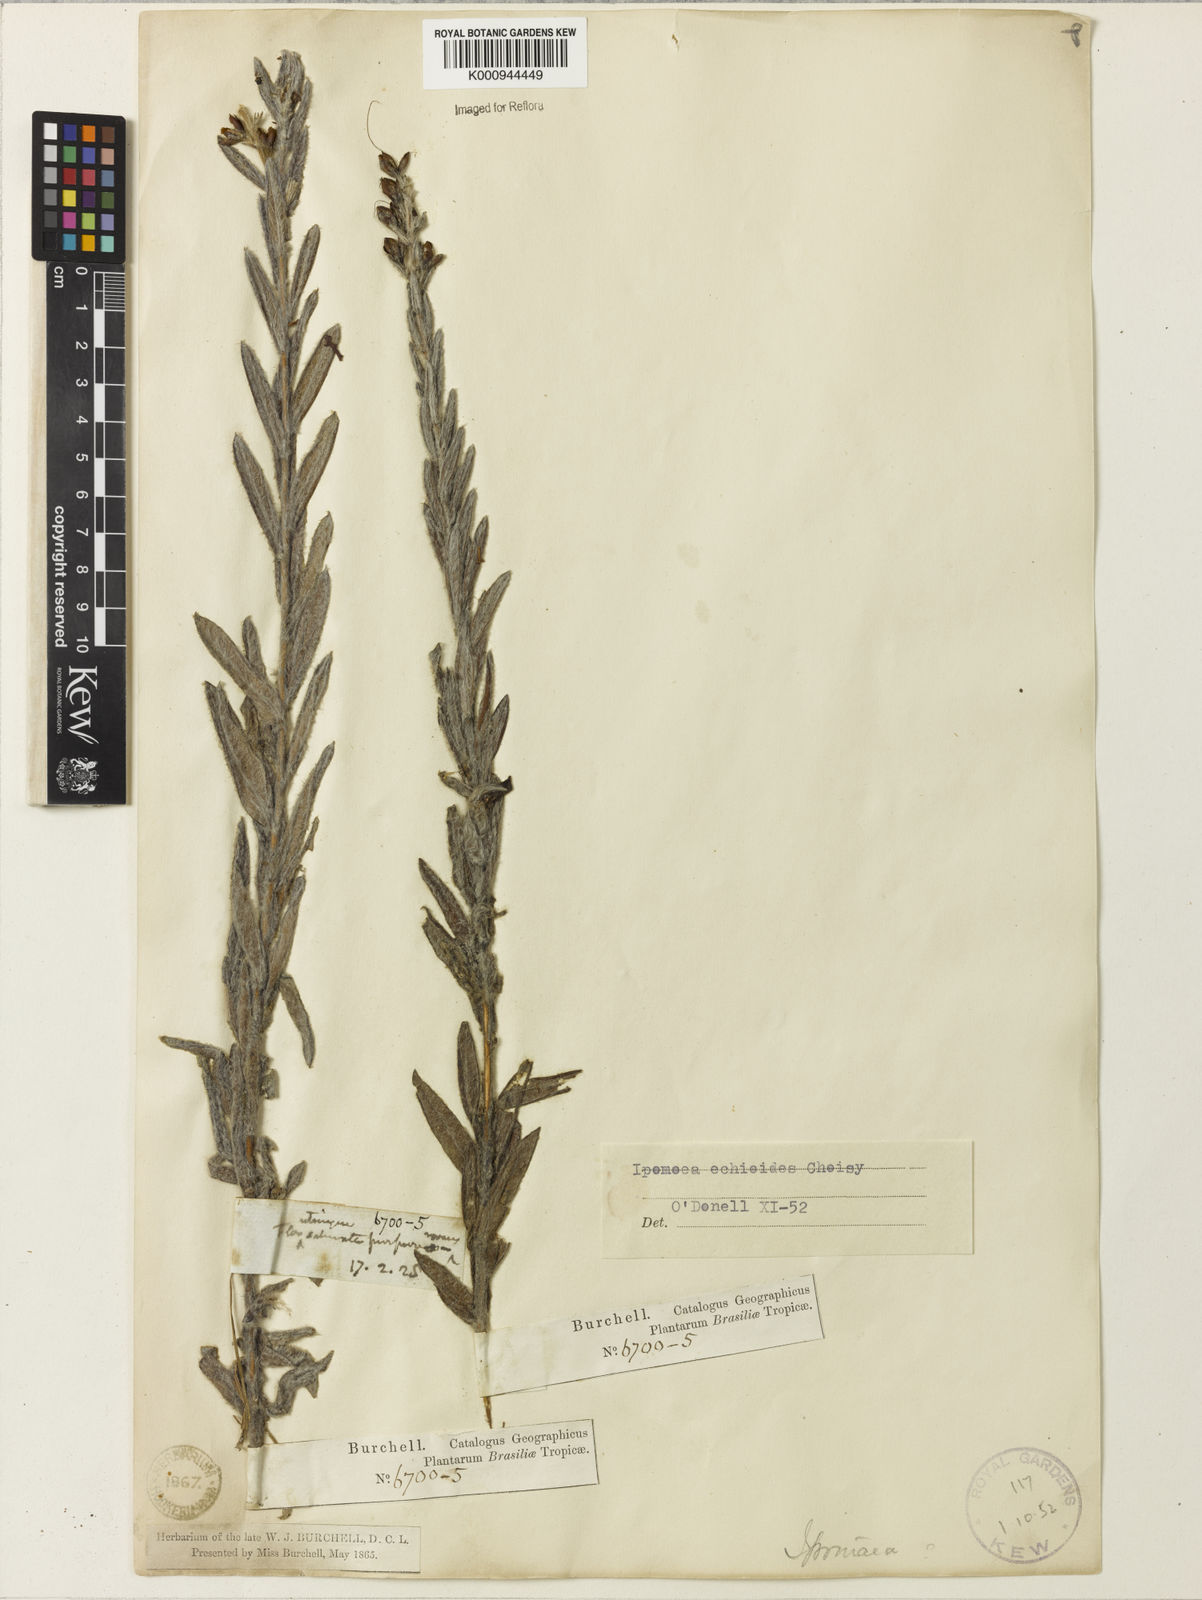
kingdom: Plantae
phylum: Tracheophyta
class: Magnoliopsida
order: Solanales
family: Convolvulaceae
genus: Ipomoea
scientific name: Ipomoea paulistana
